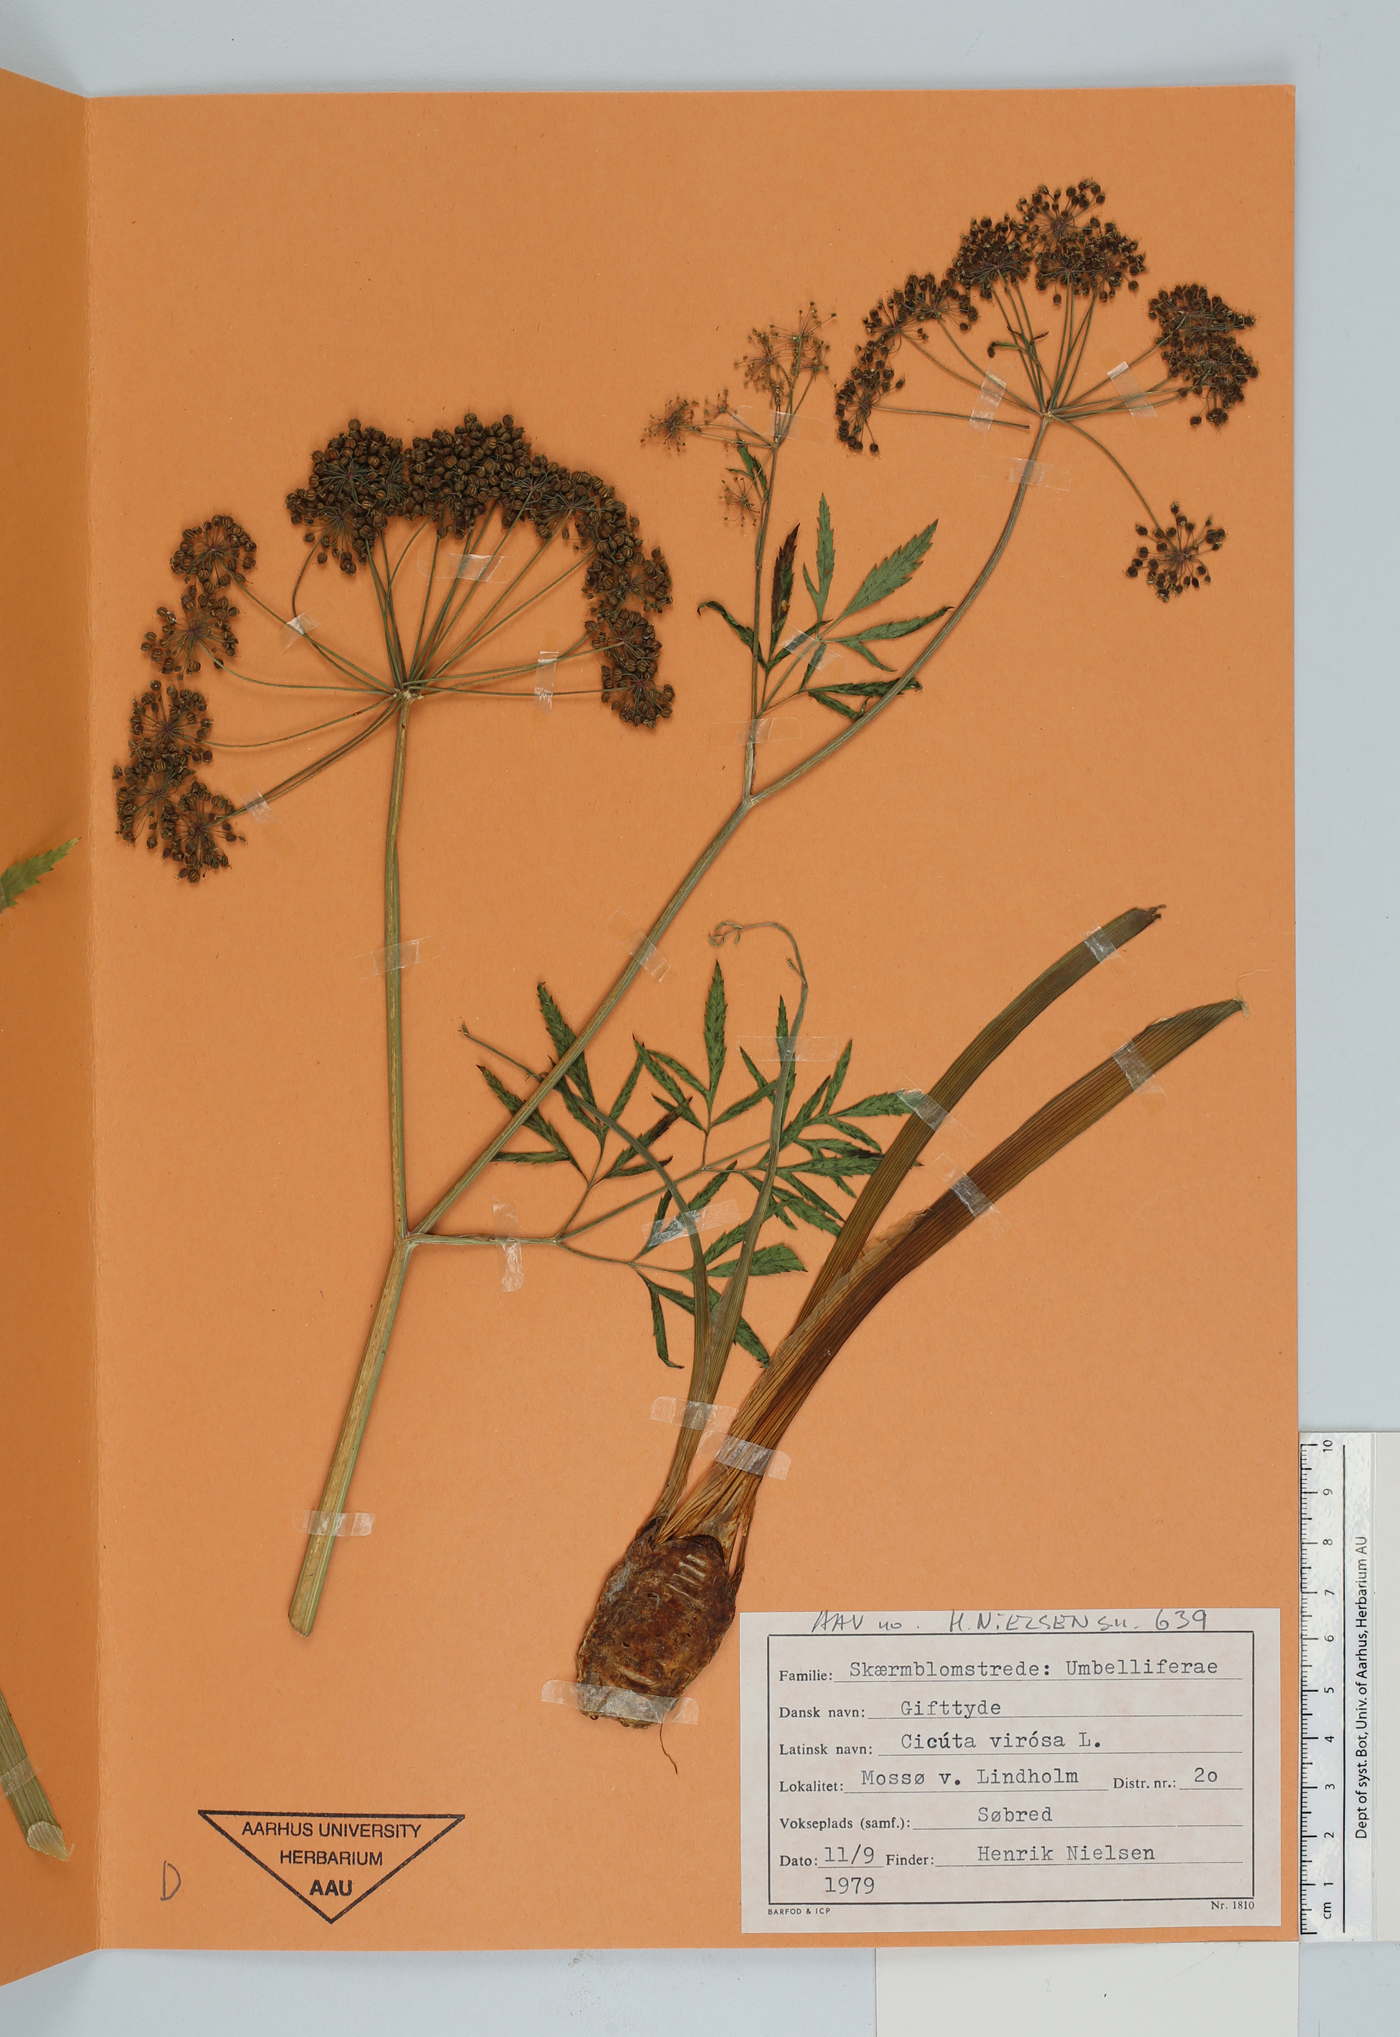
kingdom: Plantae
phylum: Tracheophyta
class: Magnoliopsida
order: Apiales
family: Apiaceae
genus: Cicuta
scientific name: Cicuta virosa
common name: Cowbane
